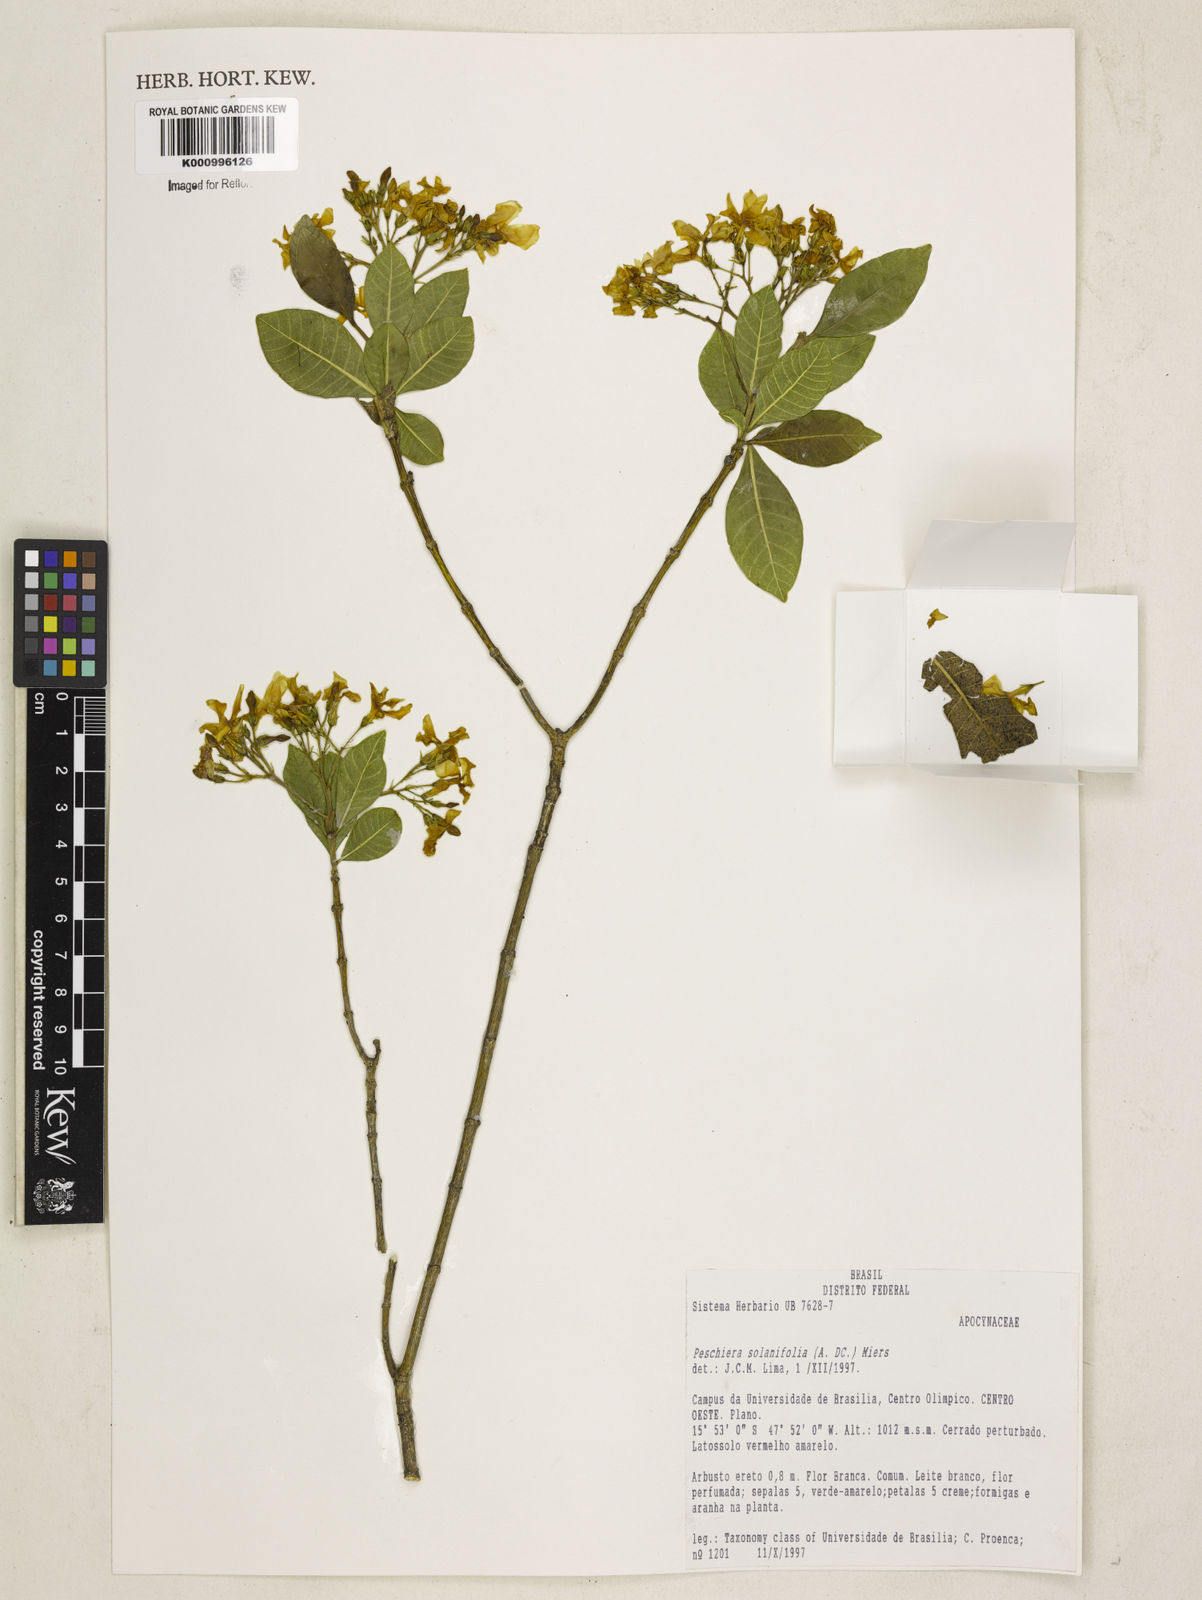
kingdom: Plantae
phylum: Tracheophyta
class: Magnoliopsida
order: Gentianales
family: Apocynaceae
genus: Tabernaemontana
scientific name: Tabernaemontana solanifolia
